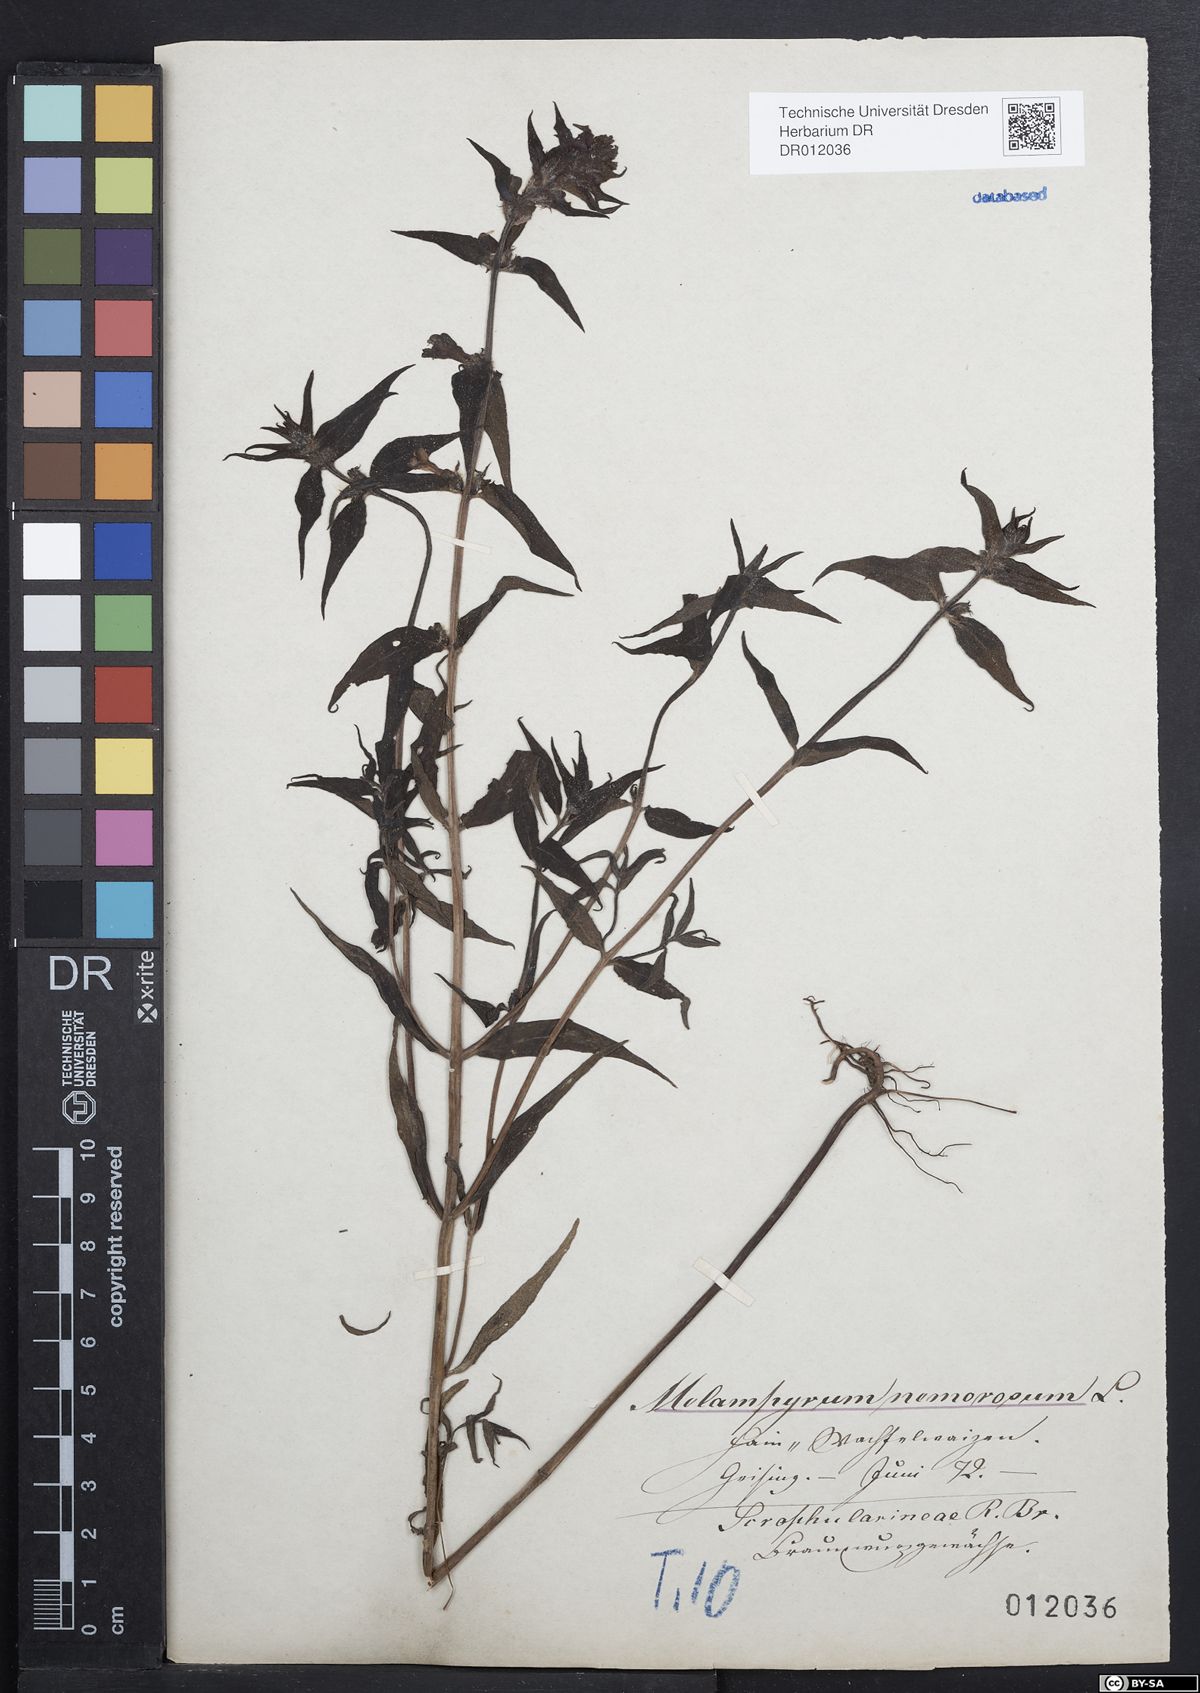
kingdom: Plantae
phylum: Tracheophyta
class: Magnoliopsida
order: Lamiales
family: Orobanchaceae
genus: Melampyrum
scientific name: Melampyrum nemorosum
